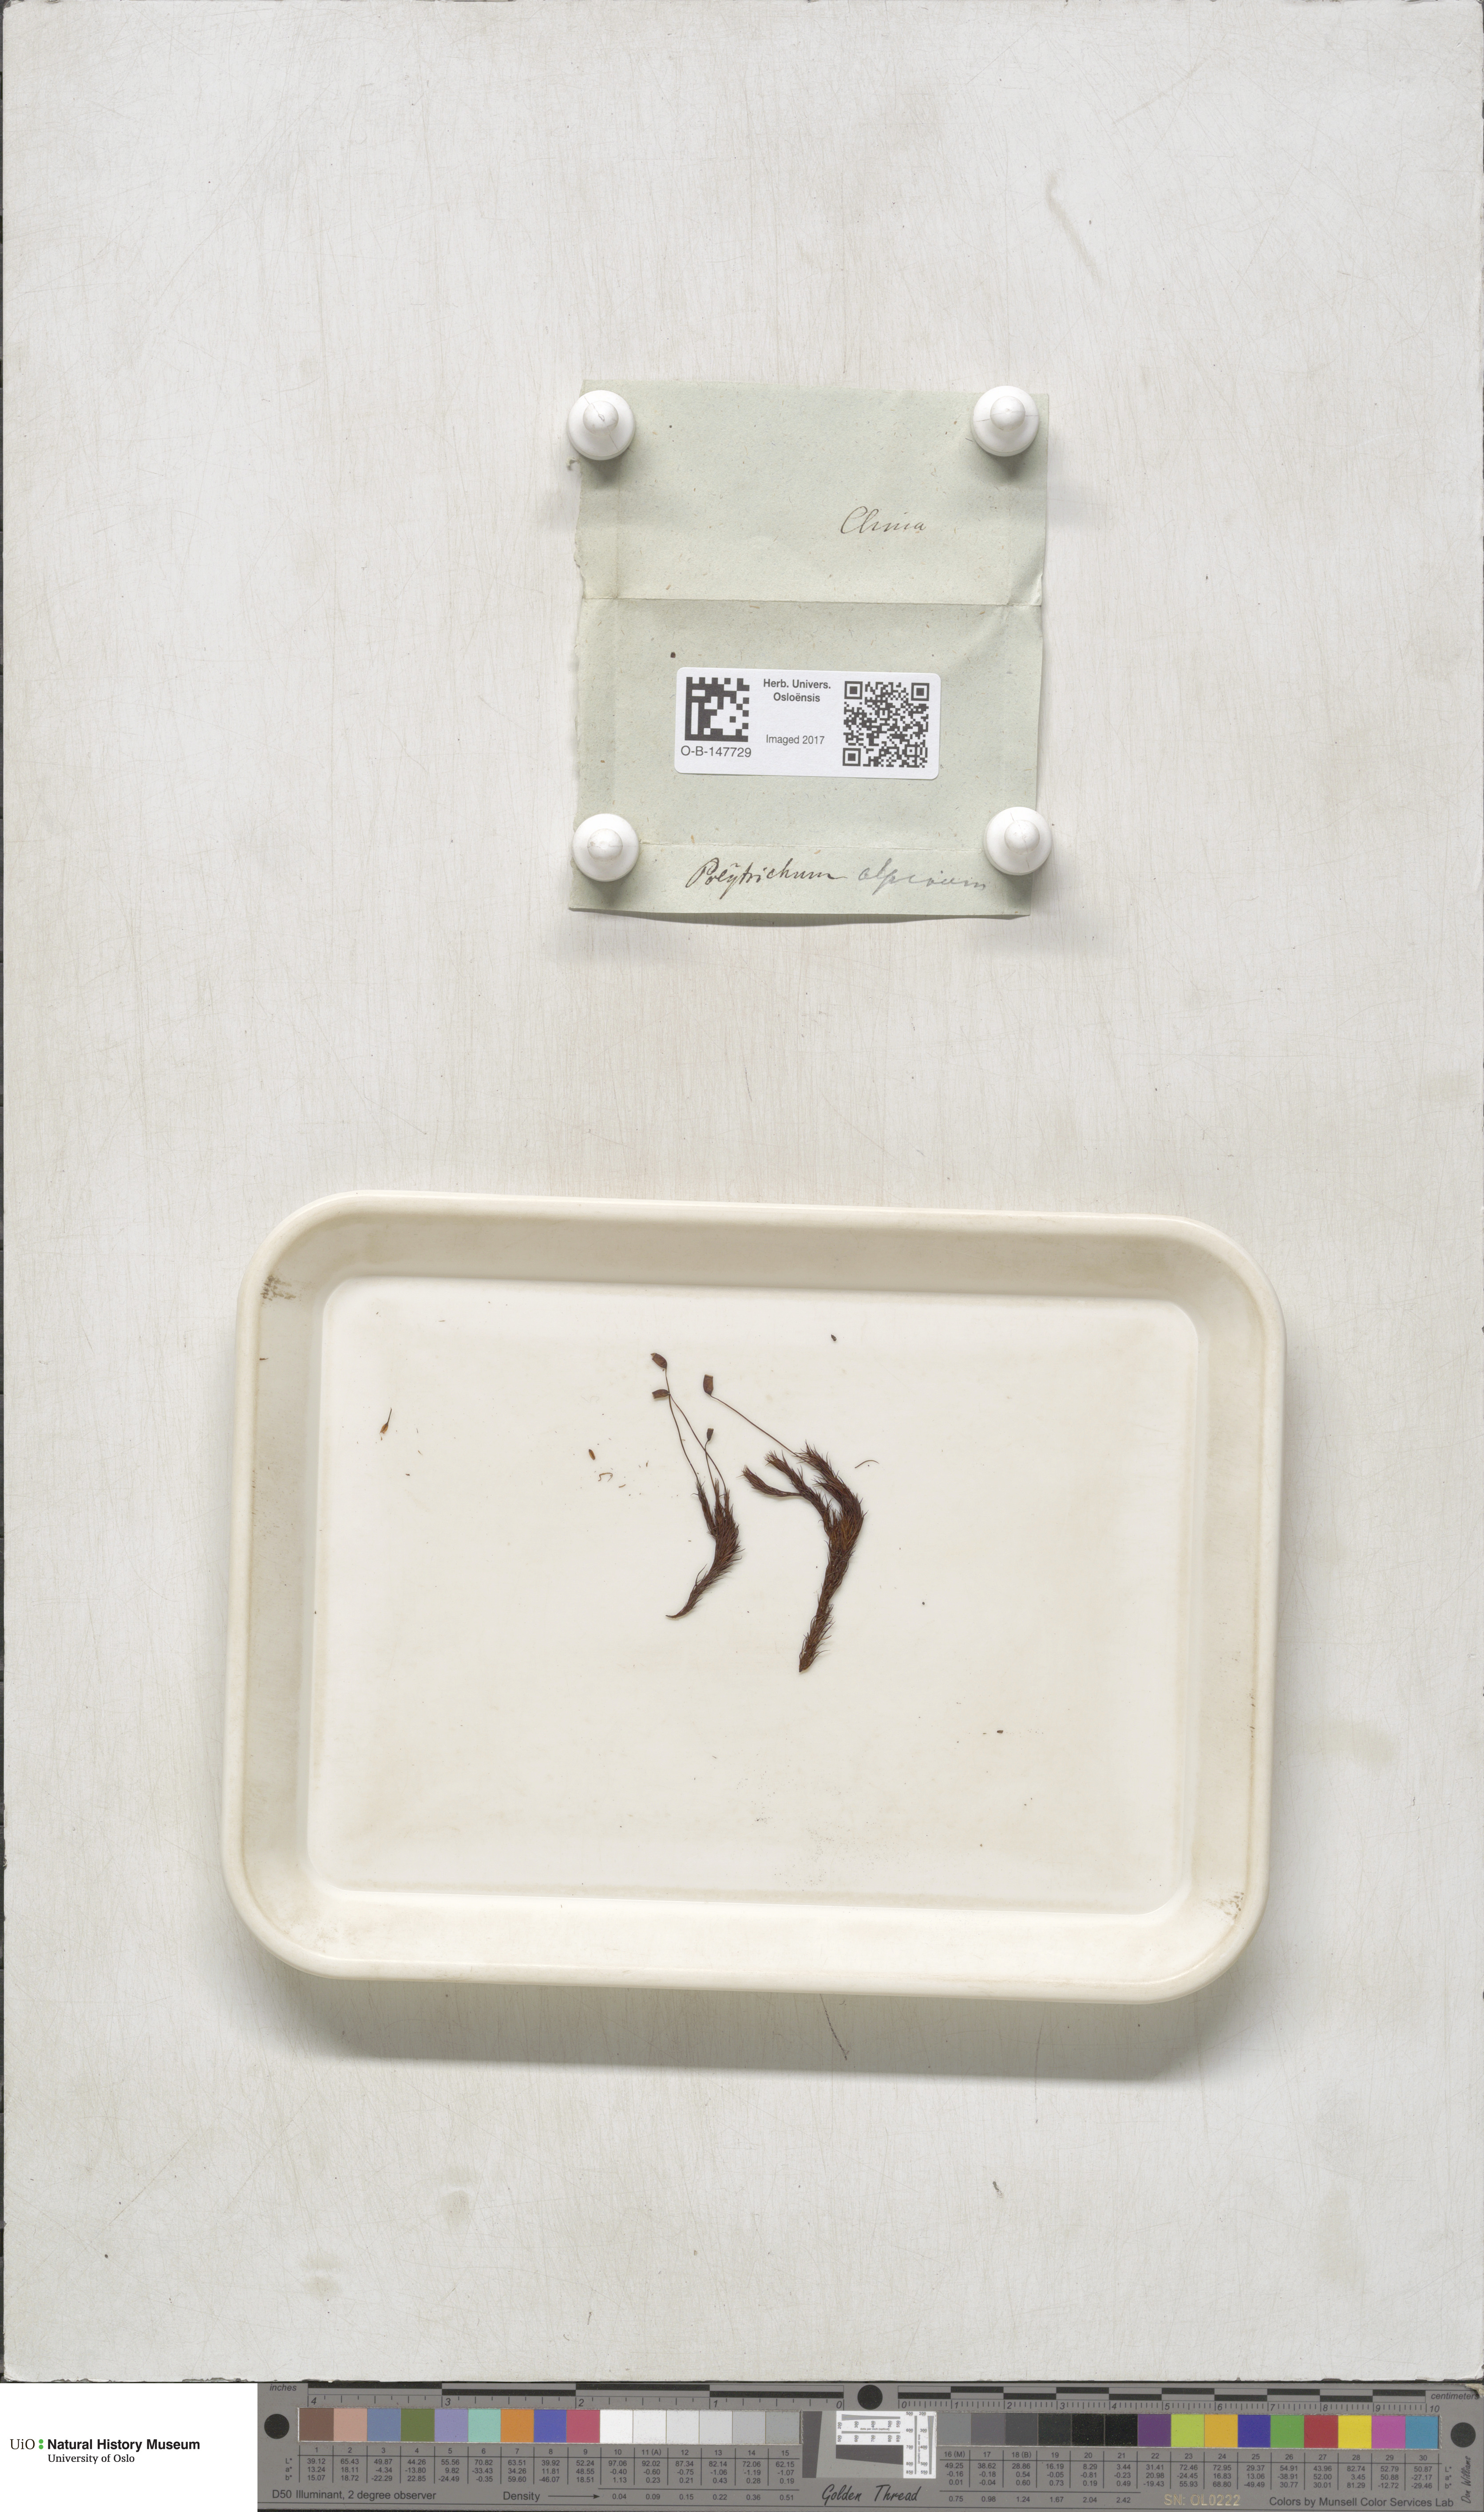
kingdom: Plantae
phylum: Bryophyta
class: Polytrichopsida
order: Polytrichales
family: Polytrichaceae
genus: Polytrichastrum
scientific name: Polytrichastrum alpinum
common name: Alpine haircap
